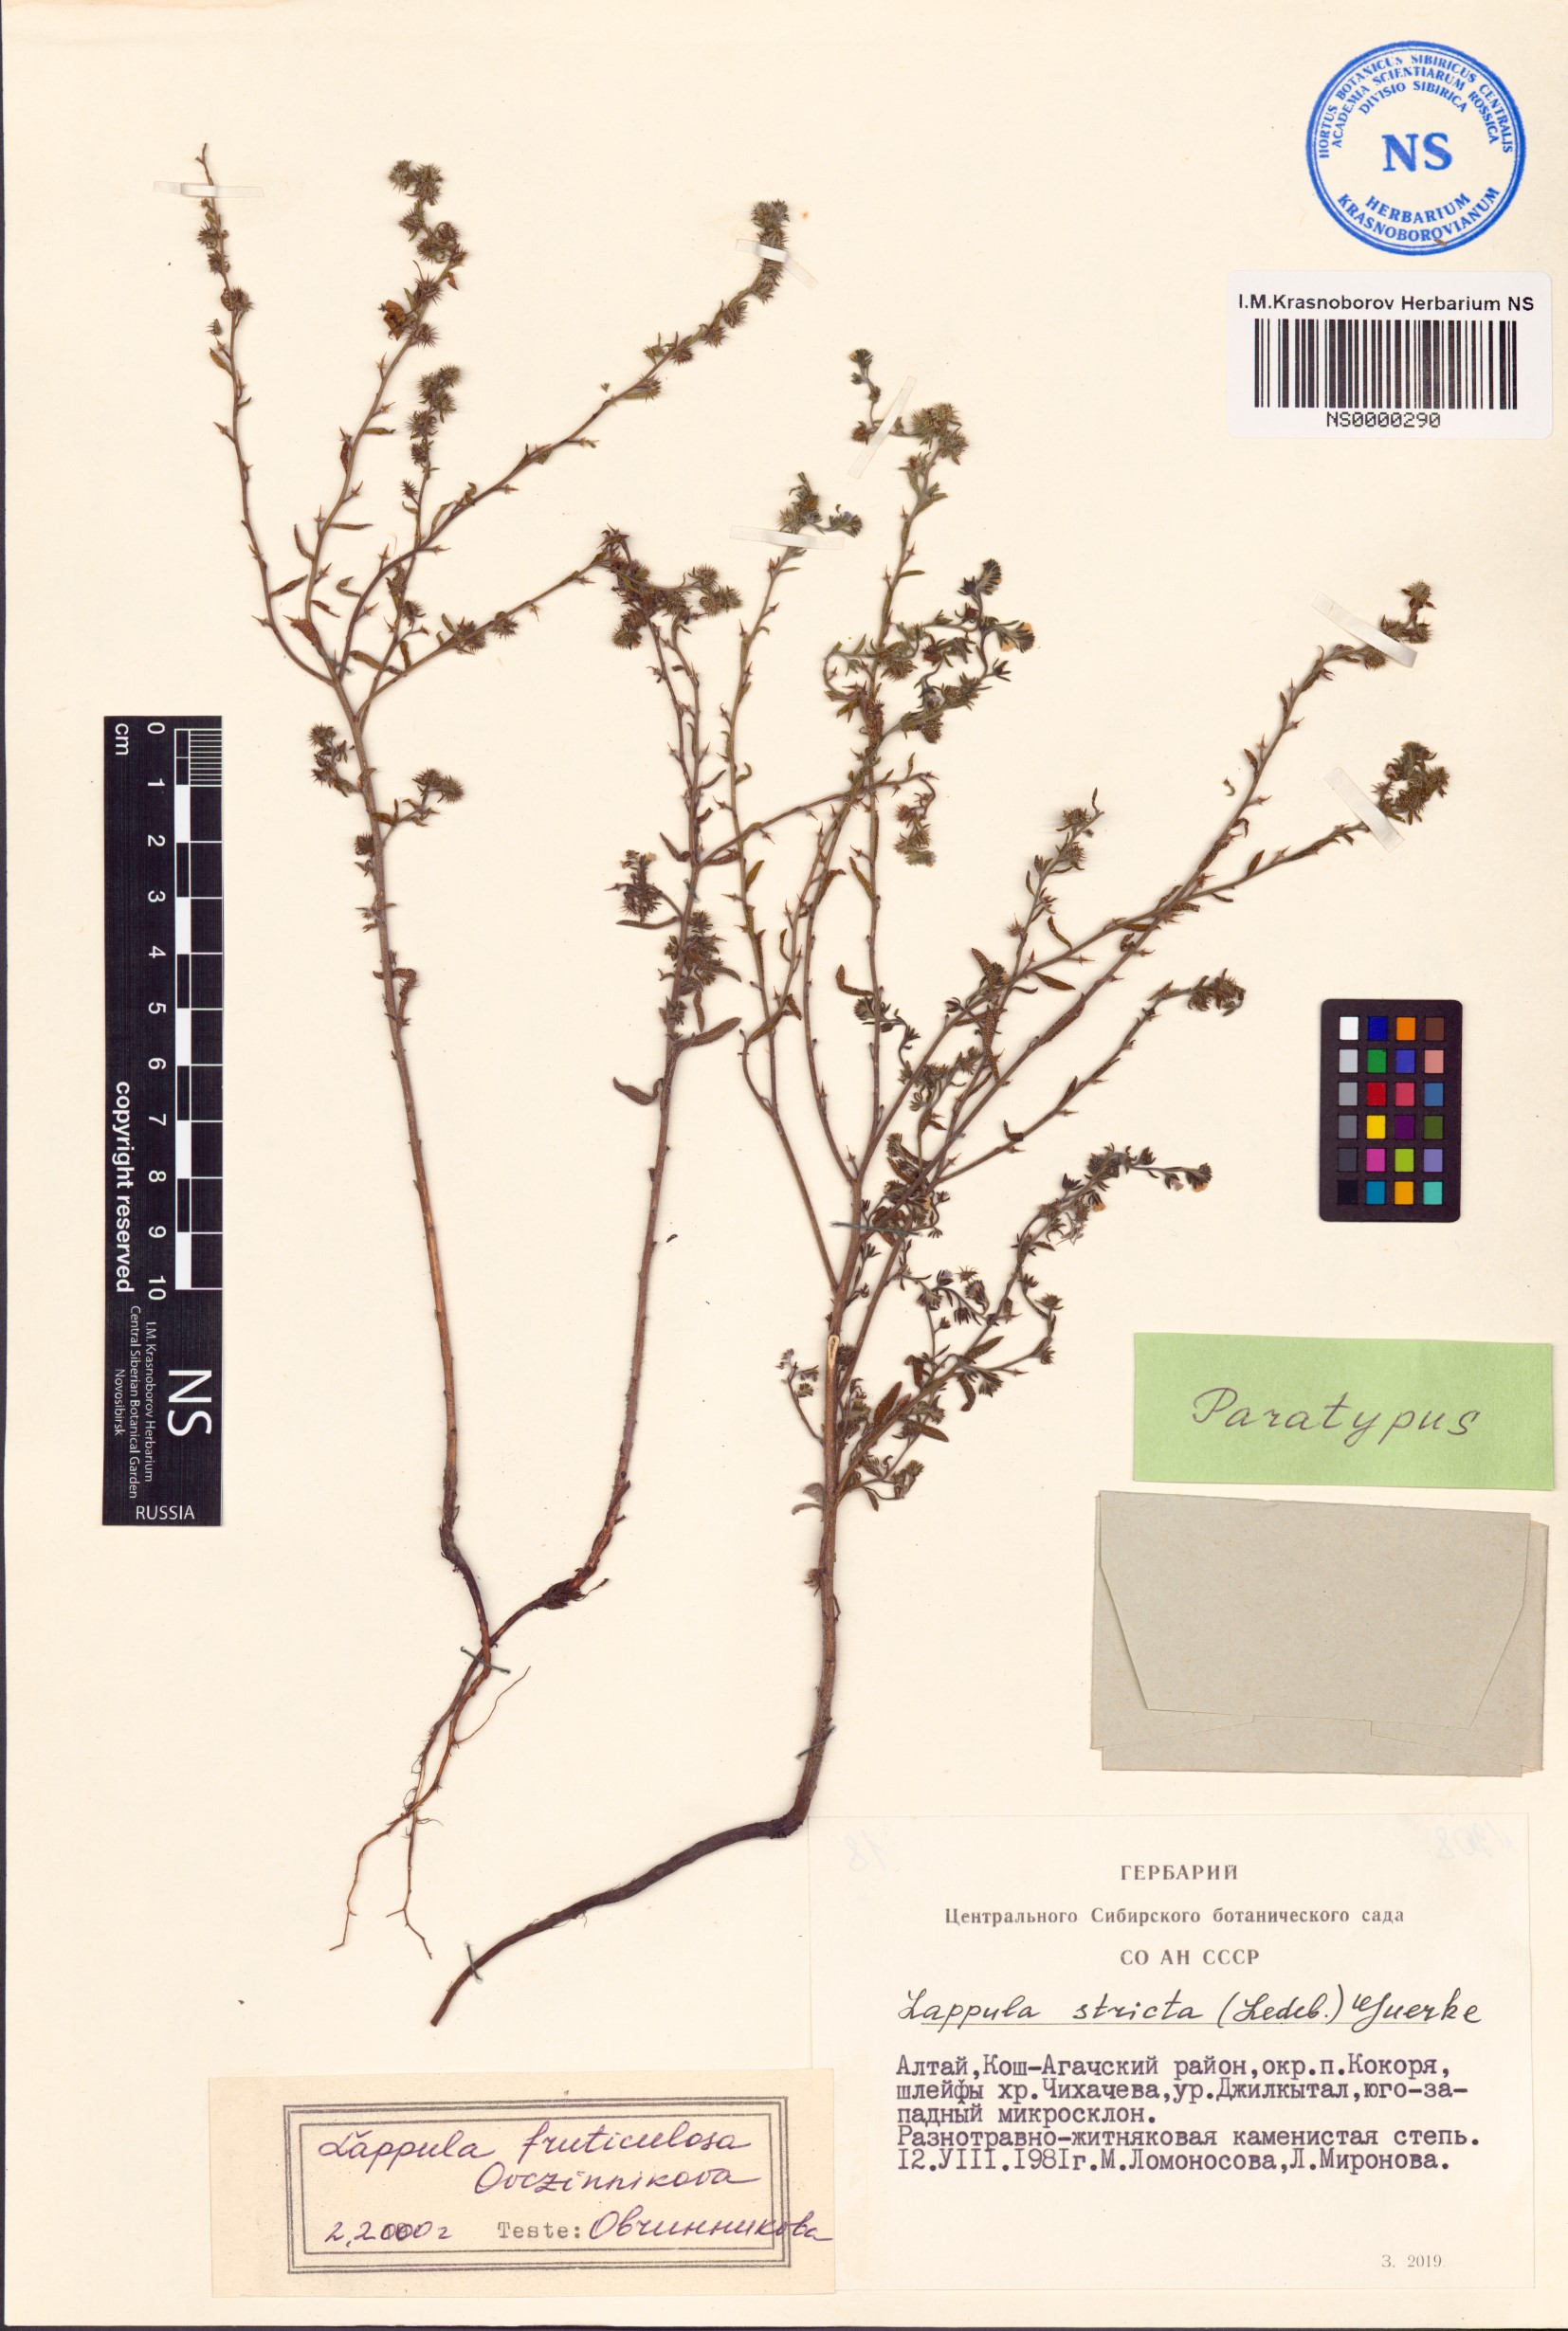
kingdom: Plantae
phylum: Tracheophyta
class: Magnoliopsida
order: Boraginales
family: Boraginaceae
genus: Lappula
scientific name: Lappula fruticulosa
